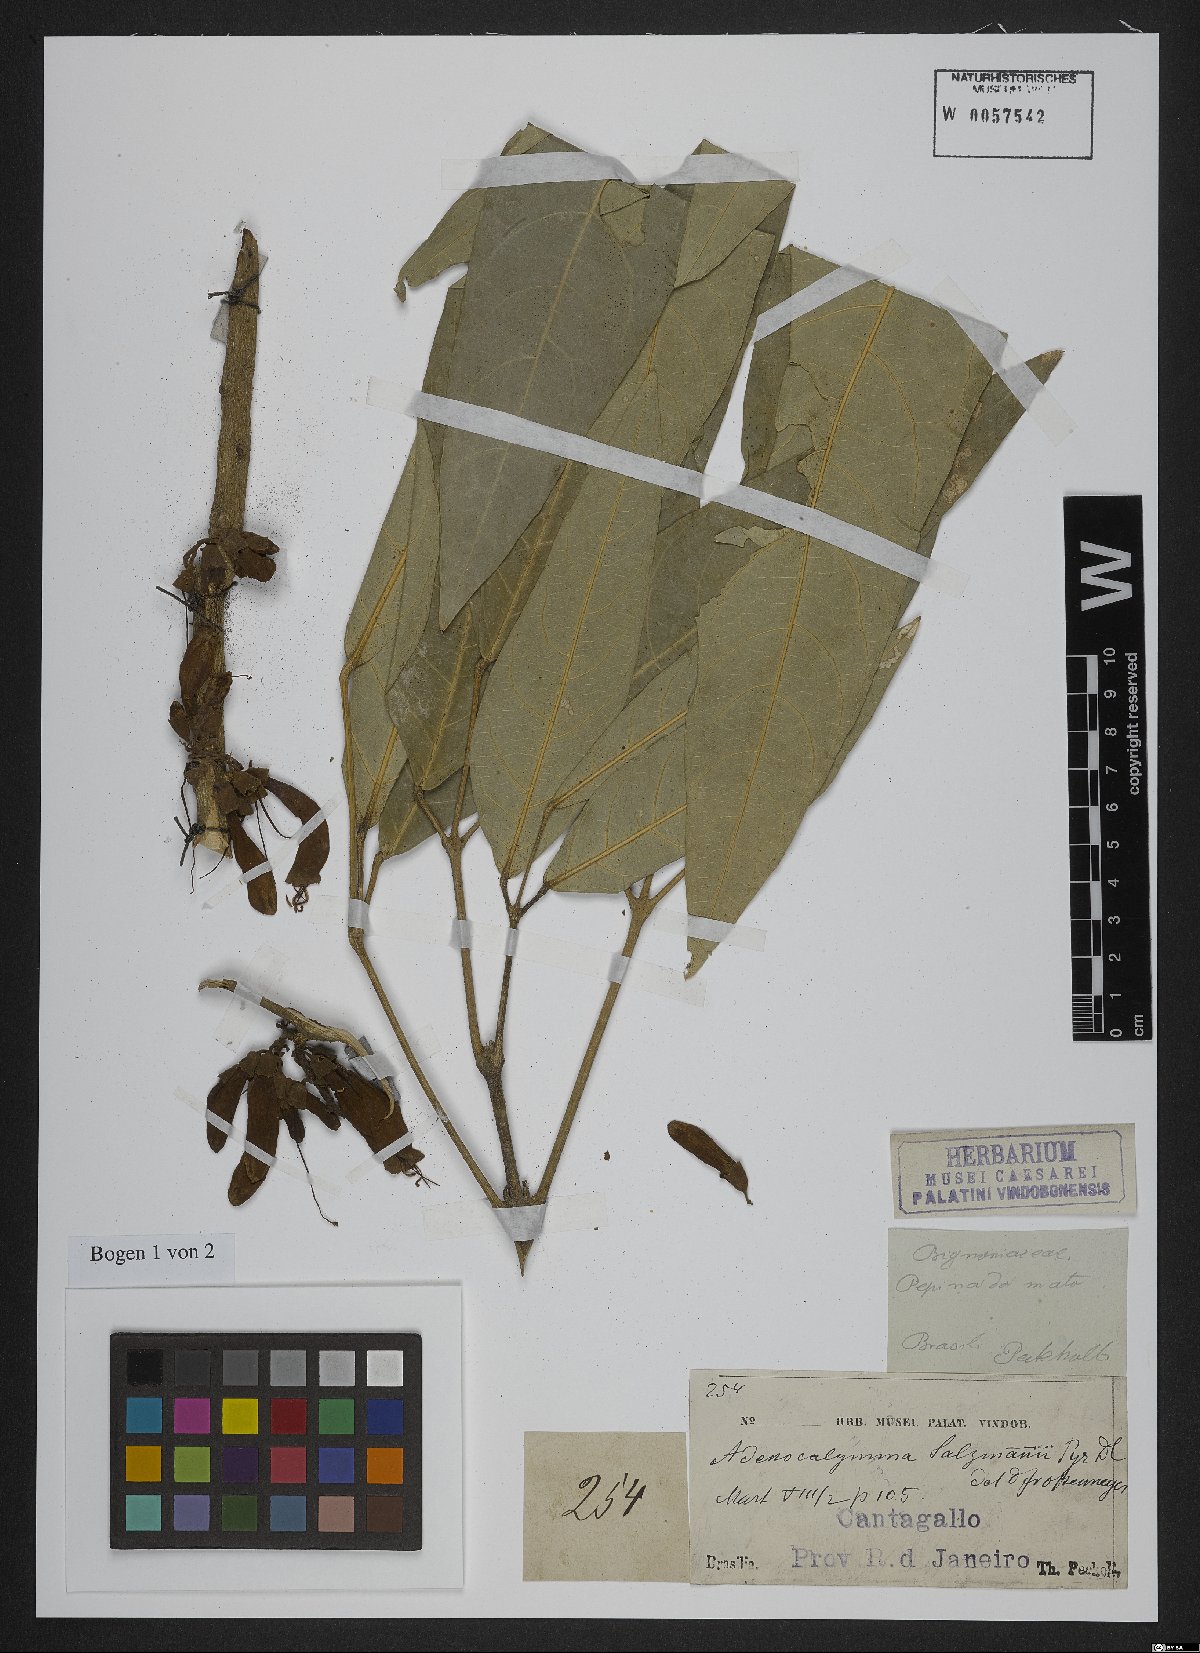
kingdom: Plantae
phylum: Tracheophyta
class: Magnoliopsida
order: Lamiales
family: Bignoniaceae
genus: Adenocalymma
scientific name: Adenocalymma coriaceum
